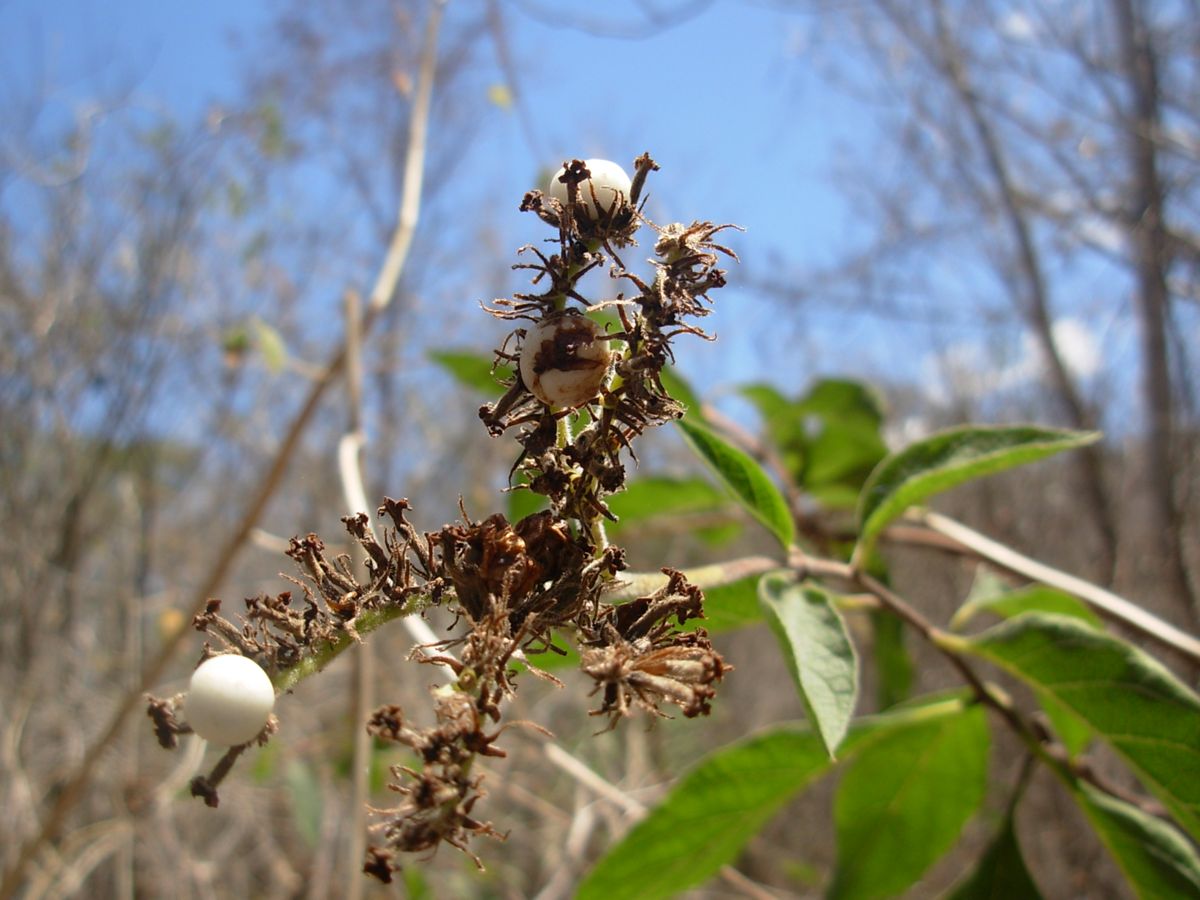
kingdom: Plantae
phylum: Tracheophyta
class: Magnoliopsida
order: Boraginales
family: Heliotropiaceae
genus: Heliotropium
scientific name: Heliotropium verdcourtii
